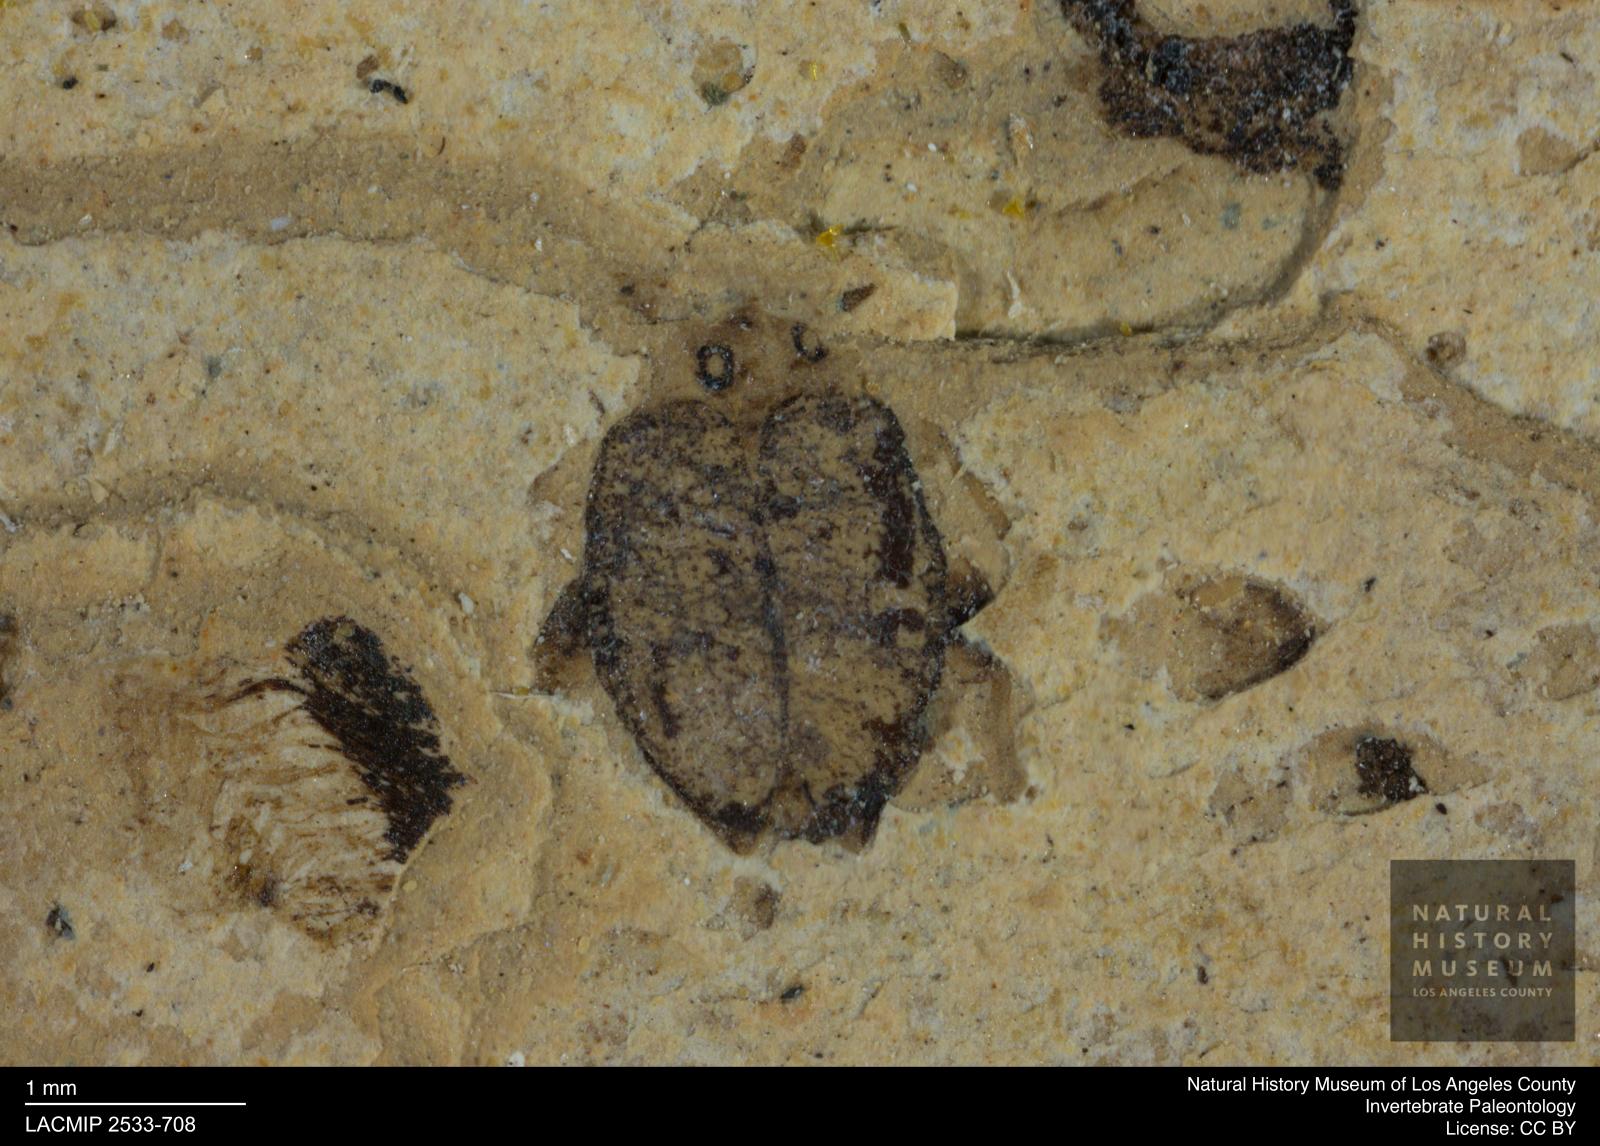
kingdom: Animalia
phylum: Arthropoda
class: Insecta
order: Coleoptera
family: Dytiscidae
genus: Oreodytes
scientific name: Oreodytes cryptolineatus
